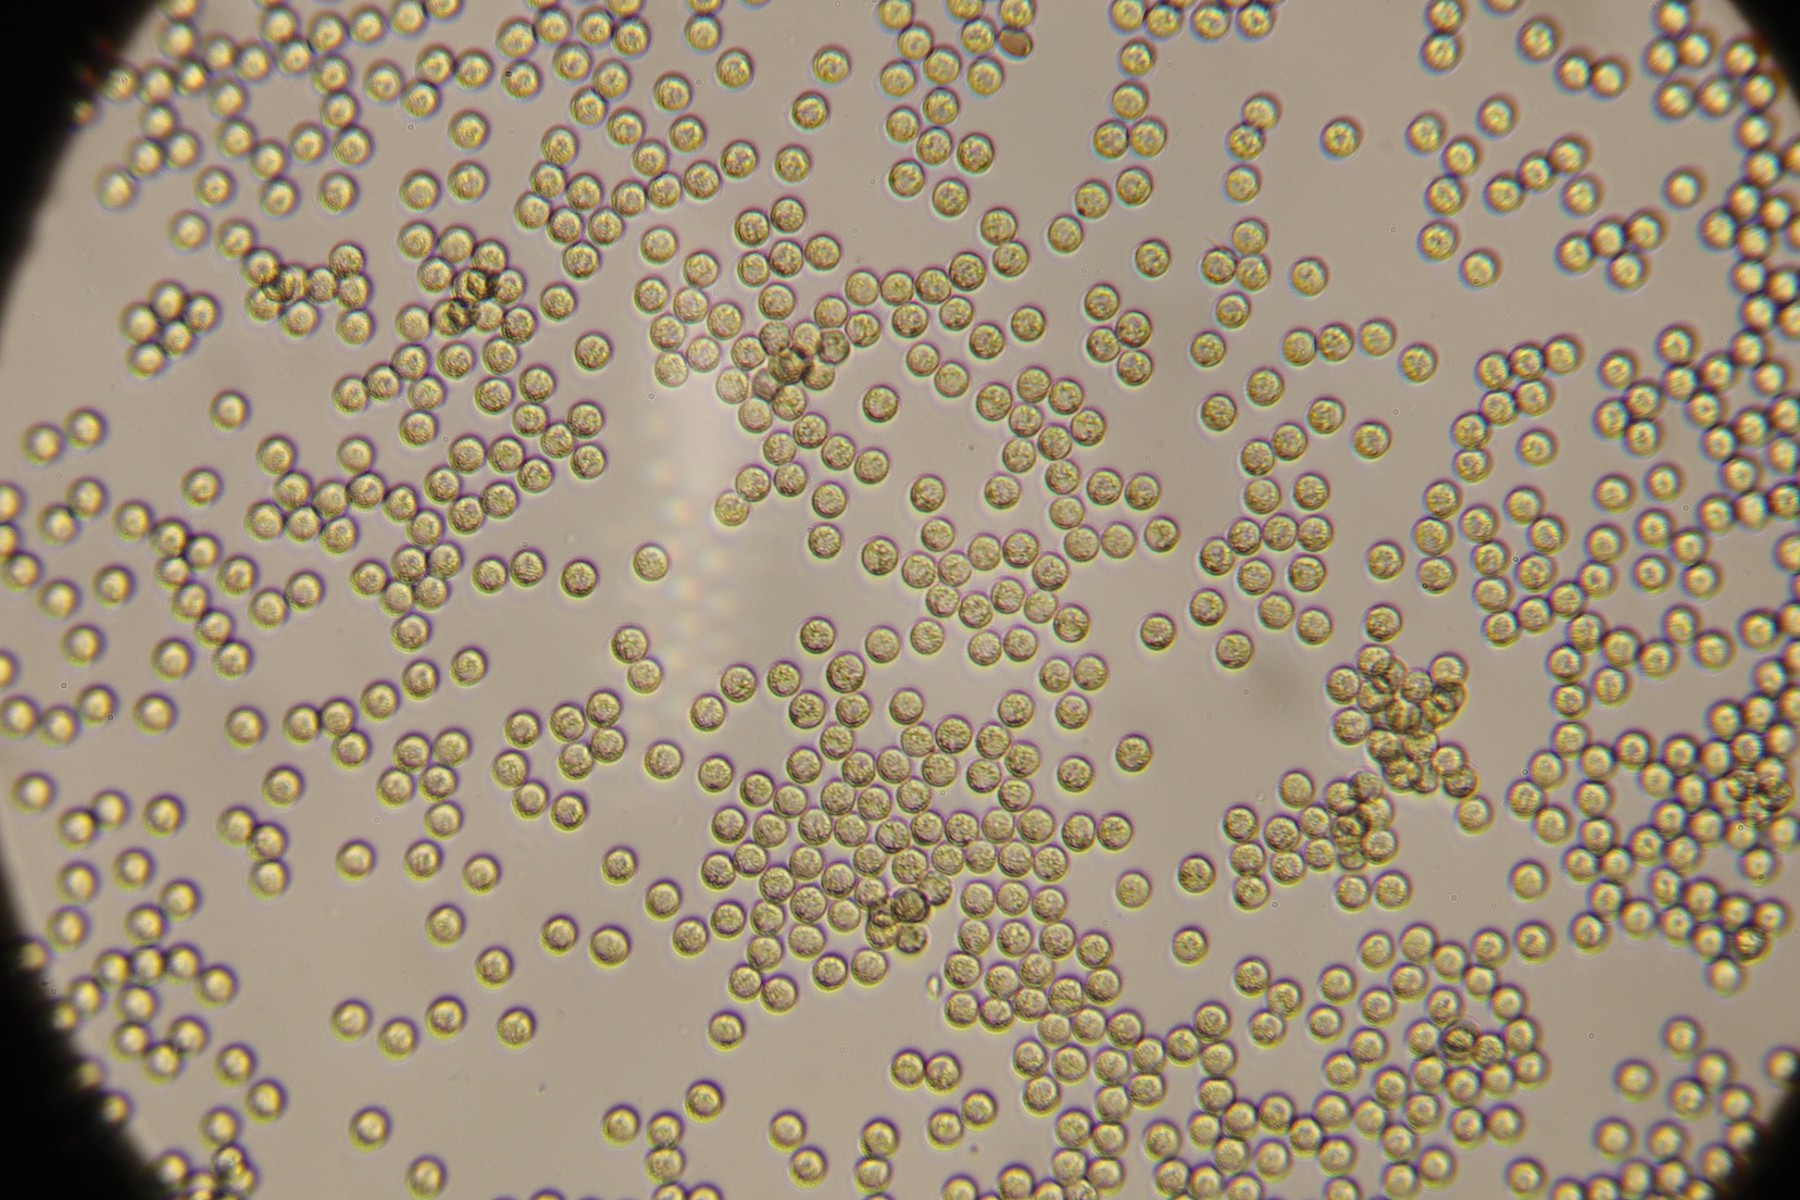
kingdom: Protozoa
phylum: Mycetozoa
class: Myxomycetes
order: Cribrariales
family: Cribrariaceae
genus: Cribraria
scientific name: Cribraria argillacea
